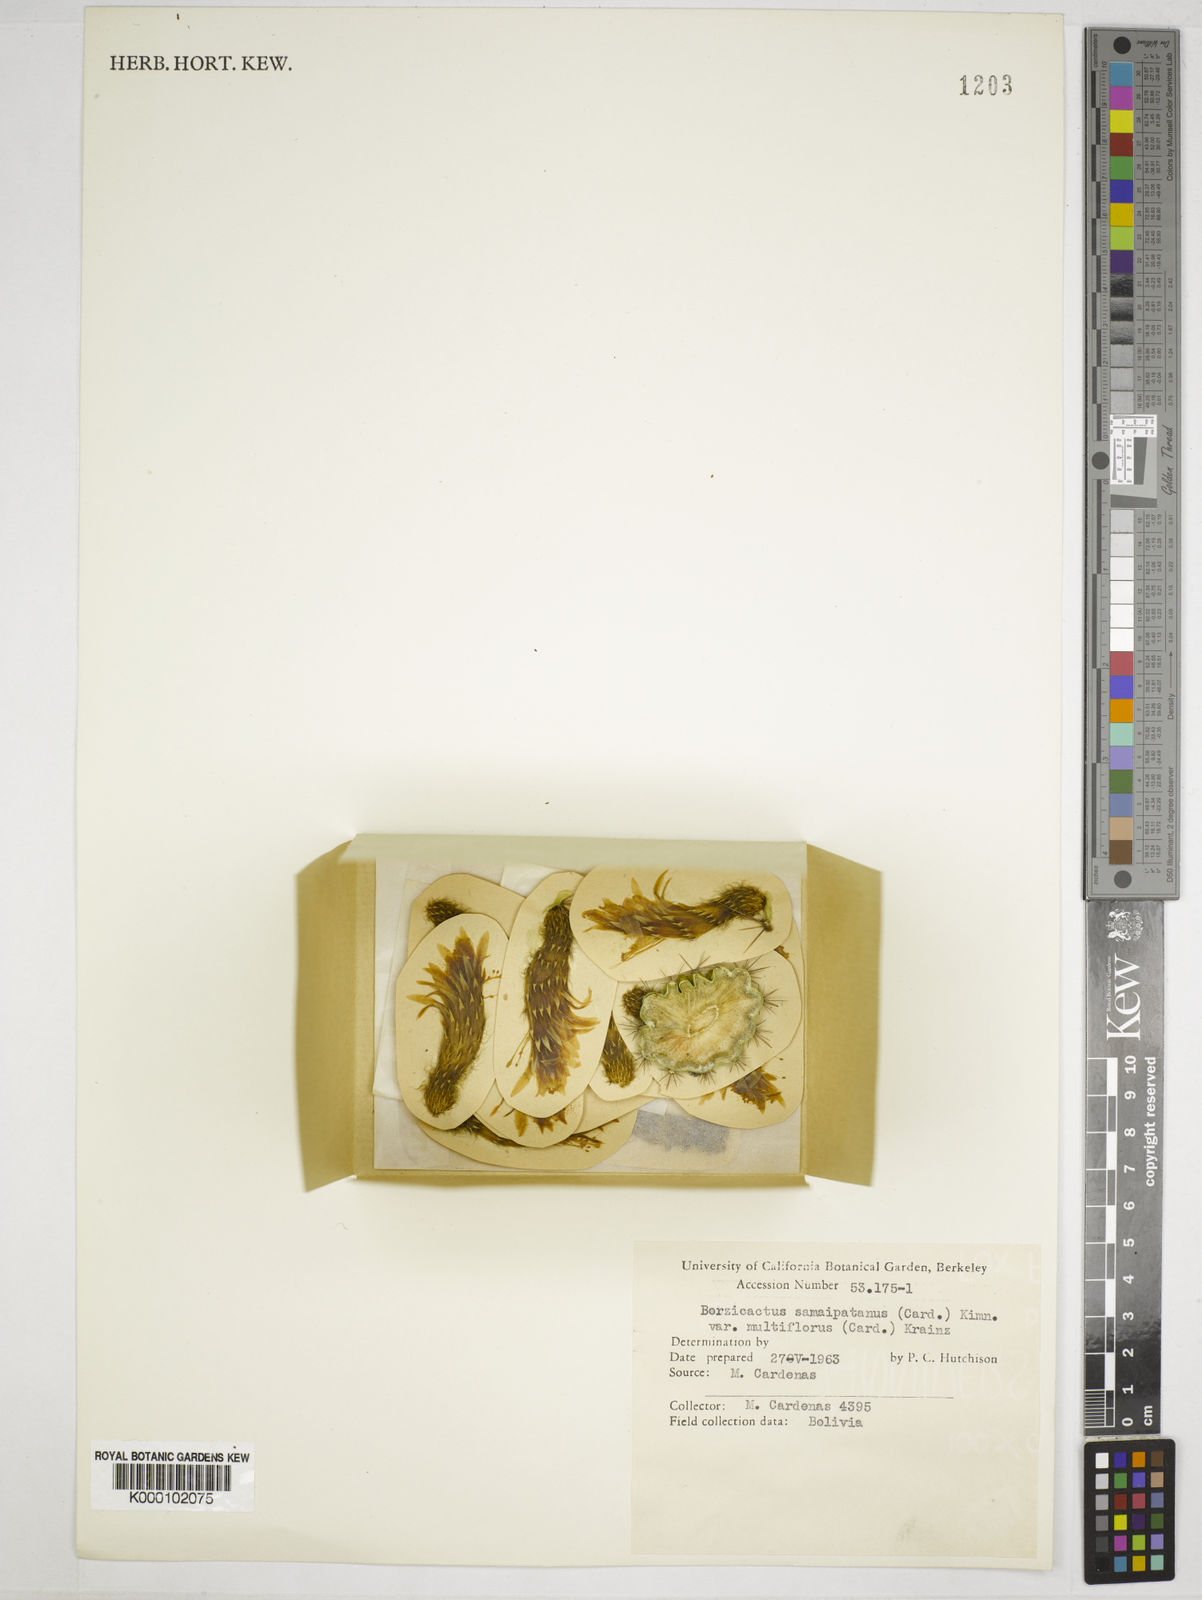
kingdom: Plantae
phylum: Tracheophyta
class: Magnoliopsida
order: Caryophyllales
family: Cactaceae
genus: Cleistocactus
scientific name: Cleistocactus
